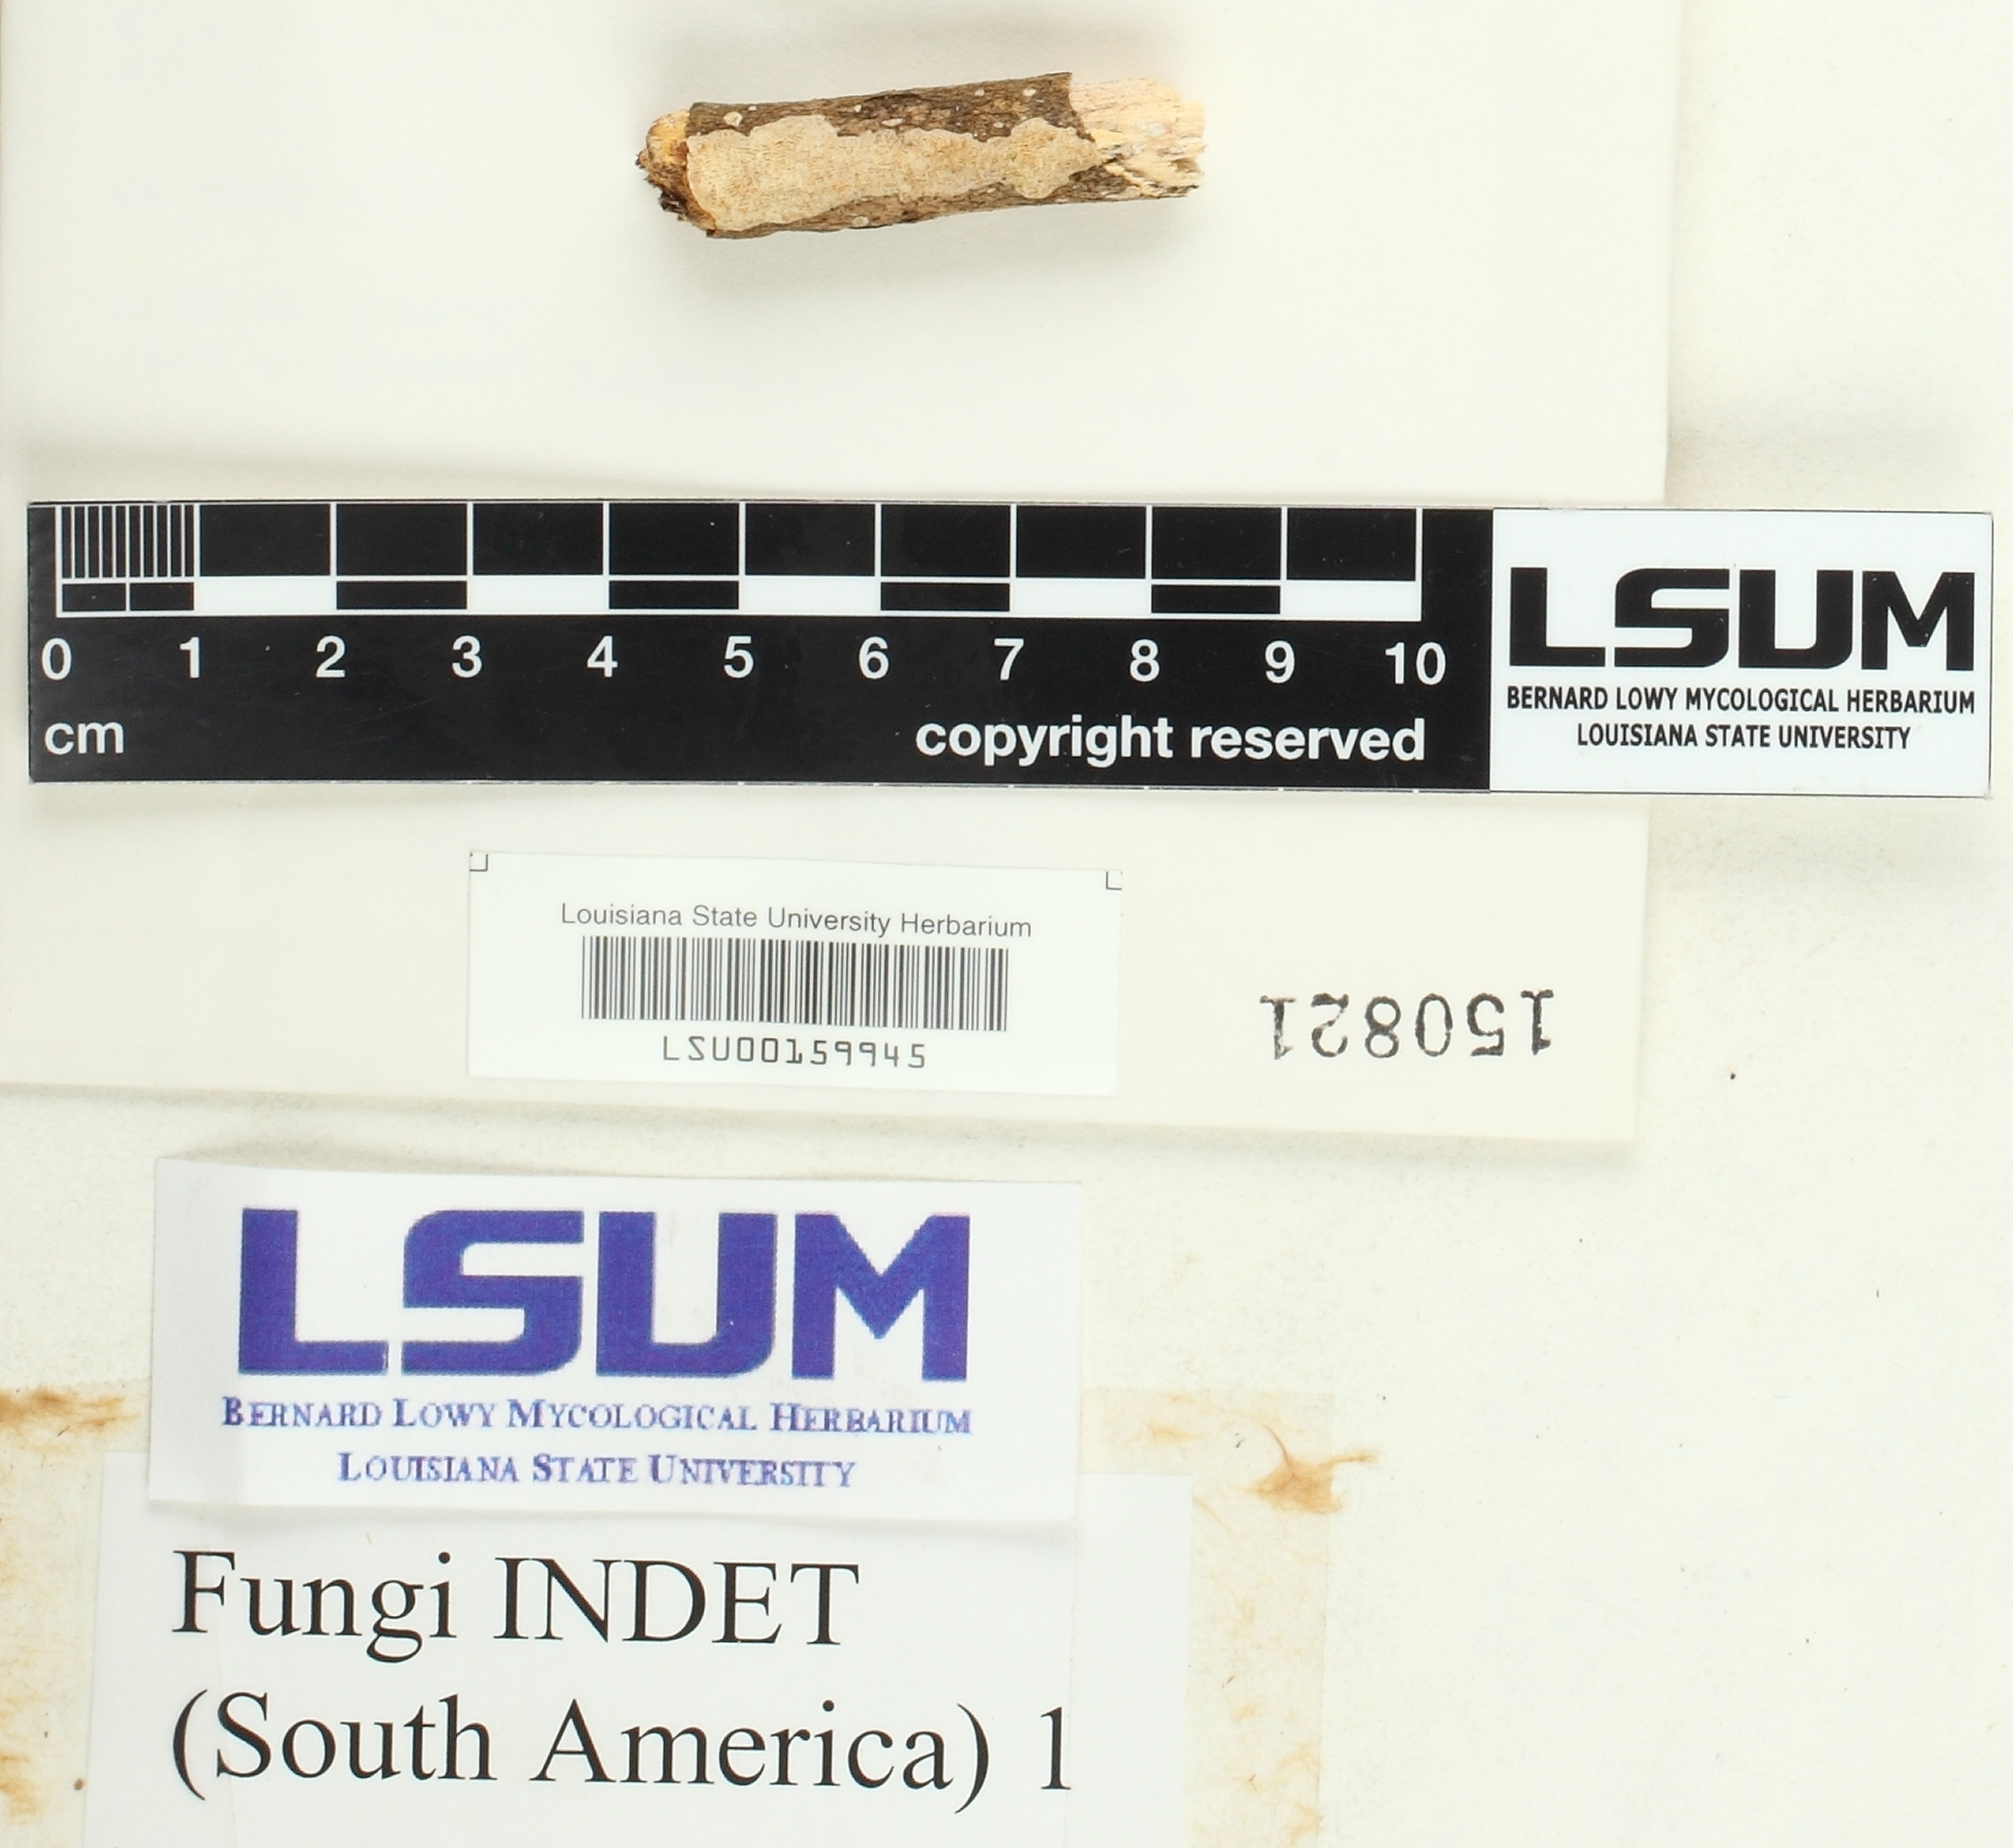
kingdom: Fungi
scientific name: Fungi
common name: Fungi
